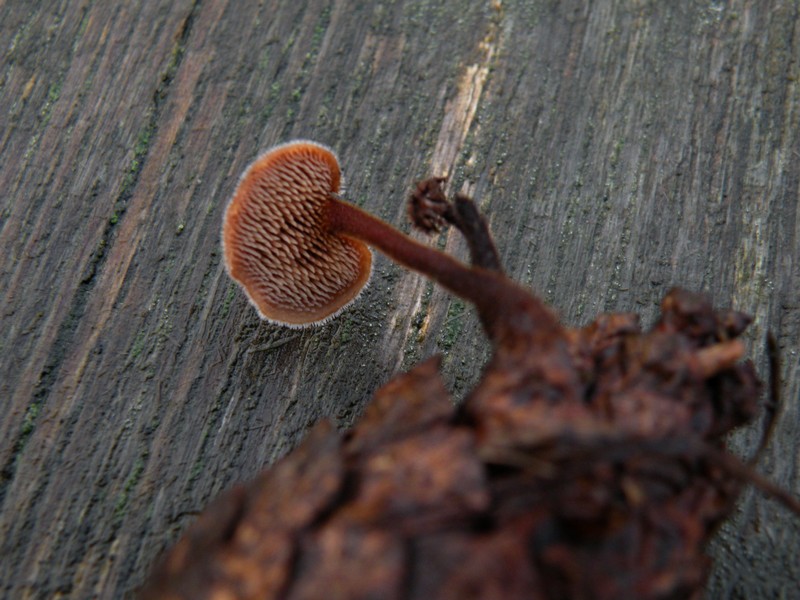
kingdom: Fungi
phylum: Basidiomycota
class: Agaricomycetes
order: Russulales
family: Auriscalpiaceae
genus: Auriscalpium
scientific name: Auriscalpium vulgare
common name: koglepigsvamp
